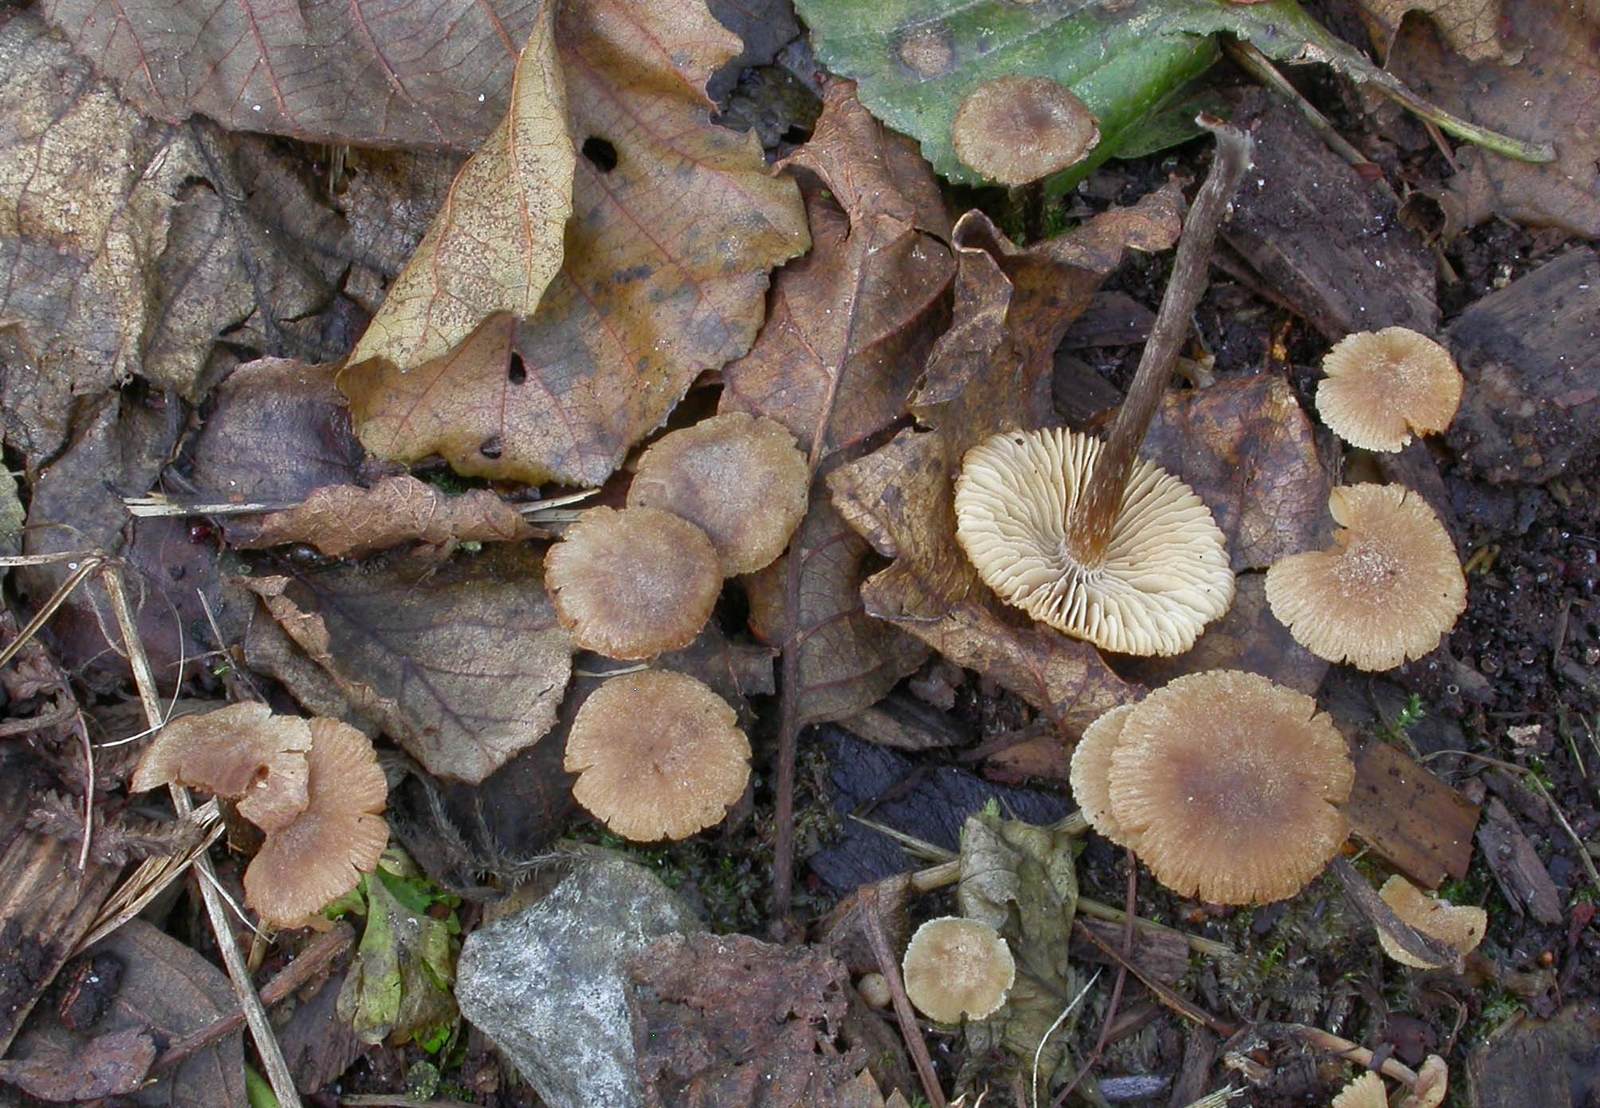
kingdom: Fungi
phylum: Basidiomycota
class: Agaricomycetes
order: Agaricales
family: Hymenogastraceae
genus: Naucoria
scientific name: Naucoria escharioides
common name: lys elle-knaphat
